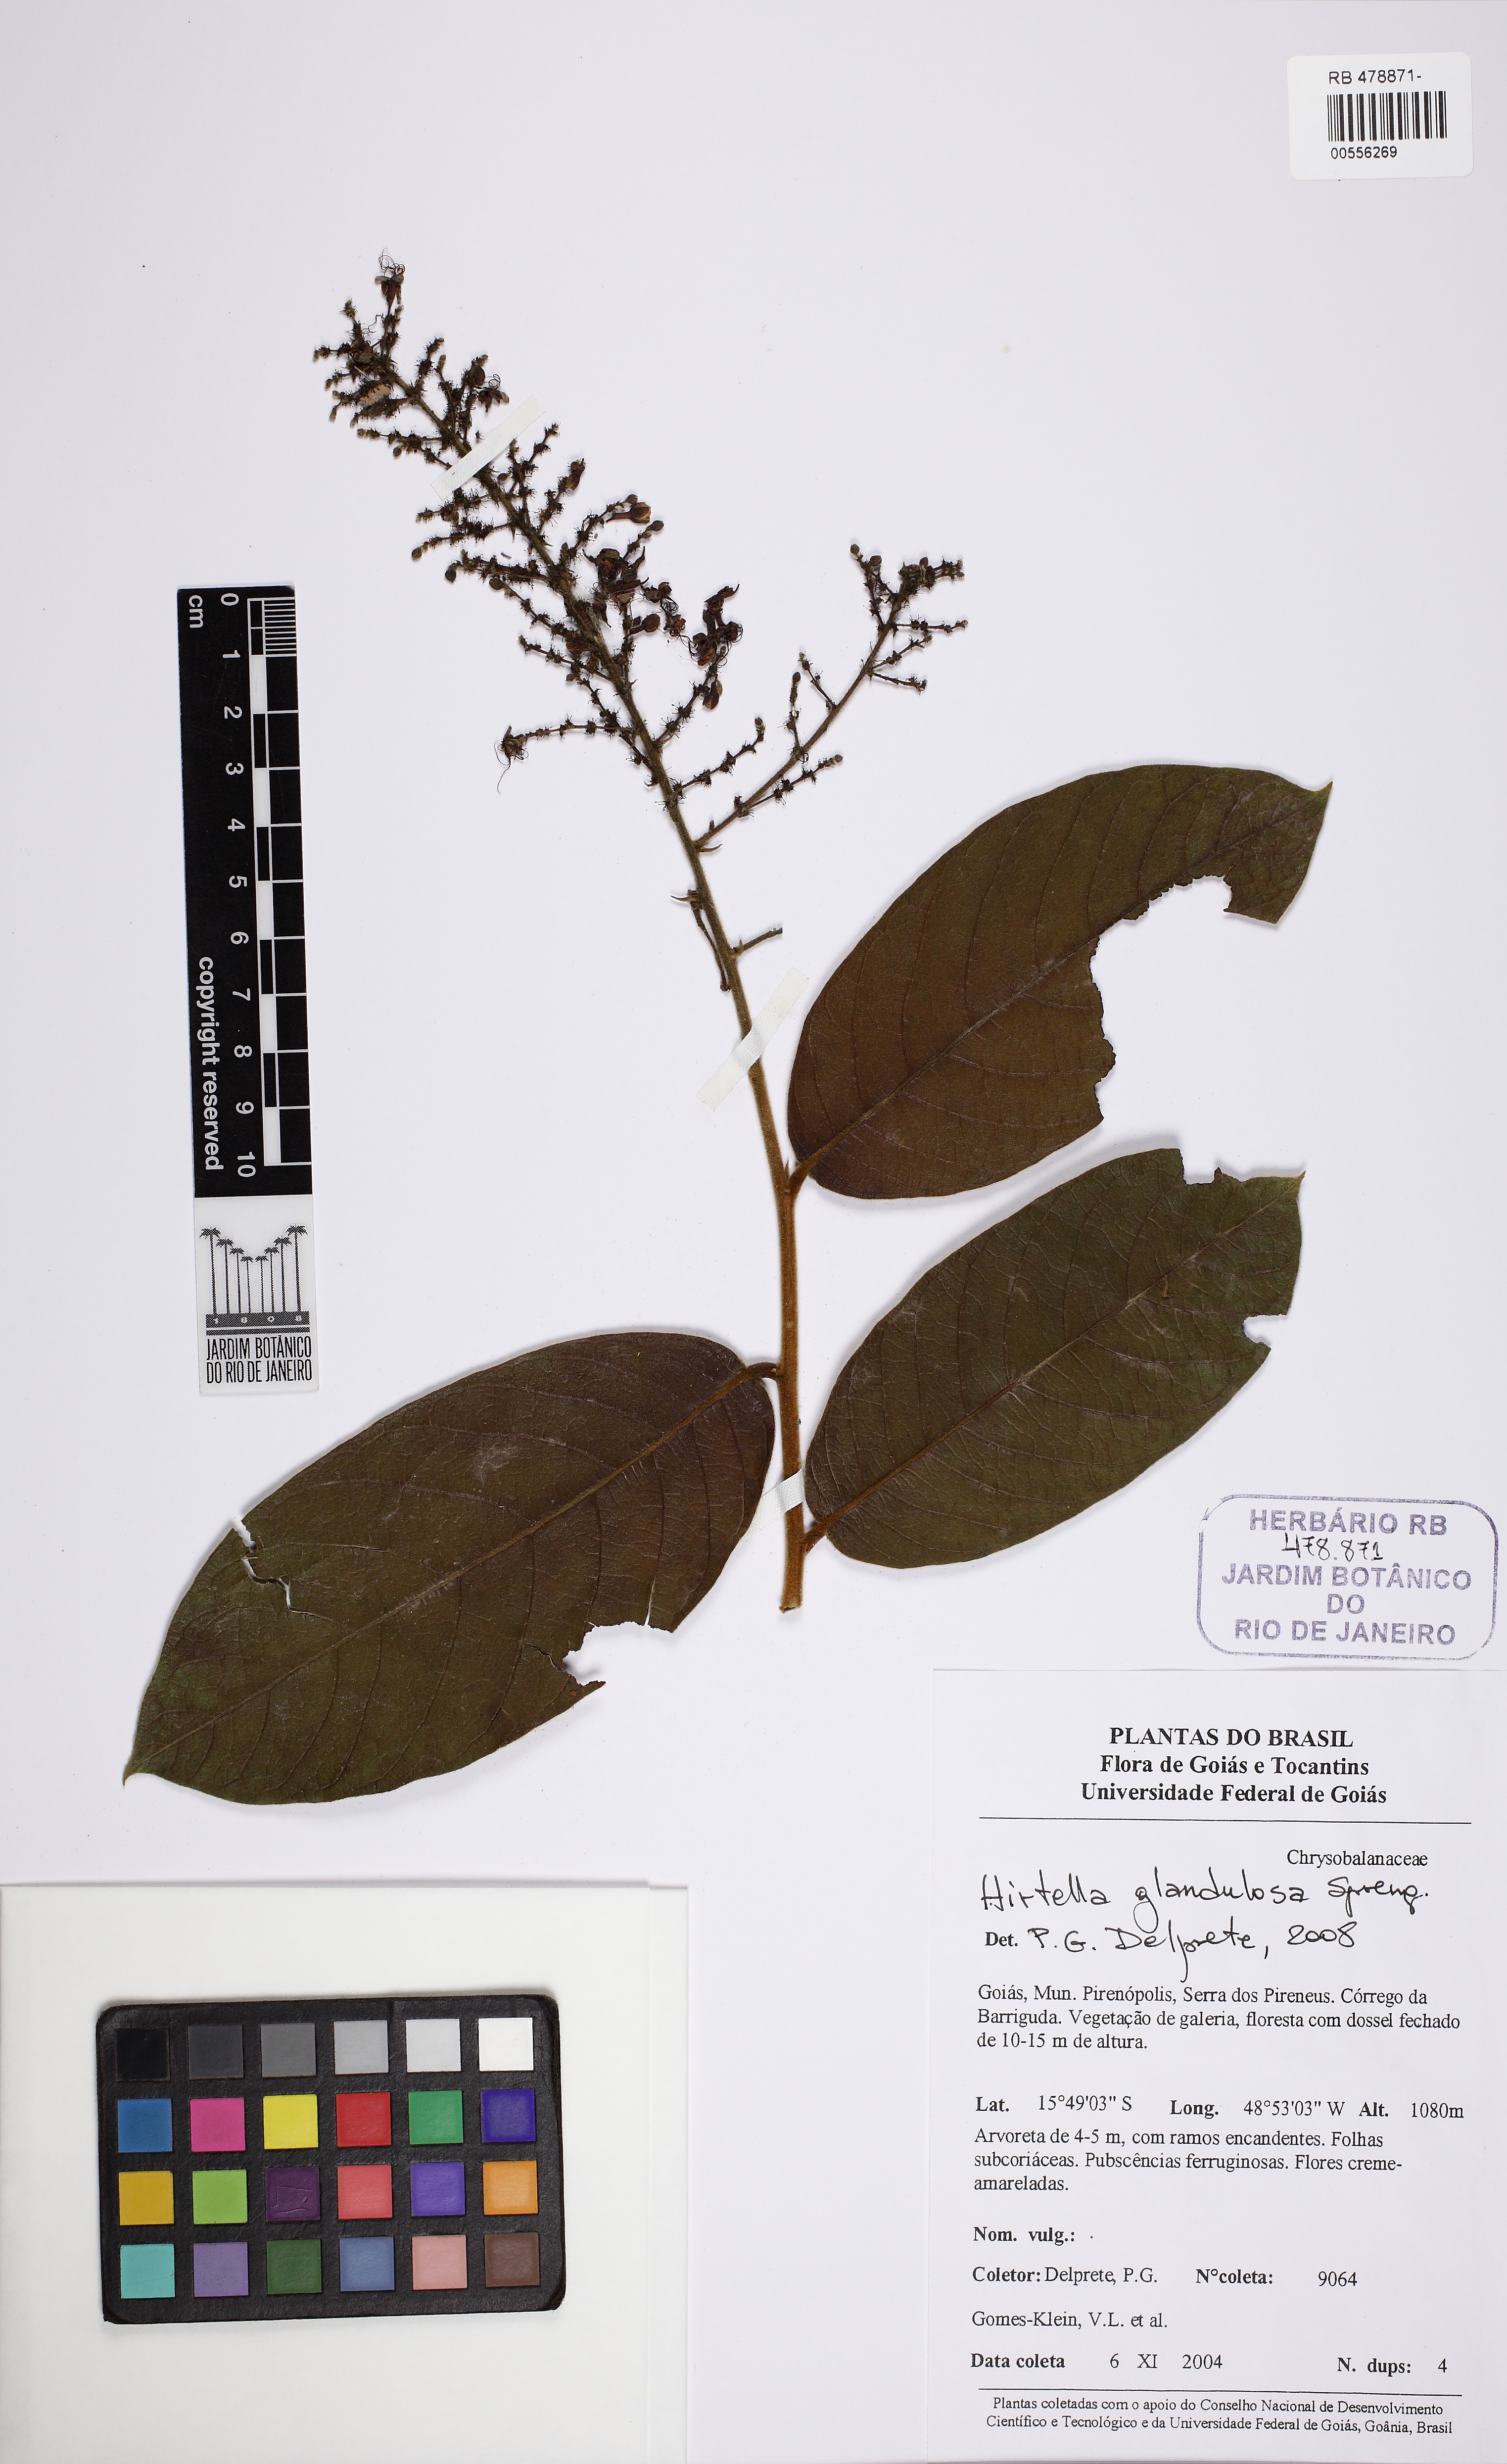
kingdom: Plantae
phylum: Tracheophyta
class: Magnoliopsida
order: Malpighiales
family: Chrysobalanaceae
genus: Hirtella
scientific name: Hirtella glandulosa
